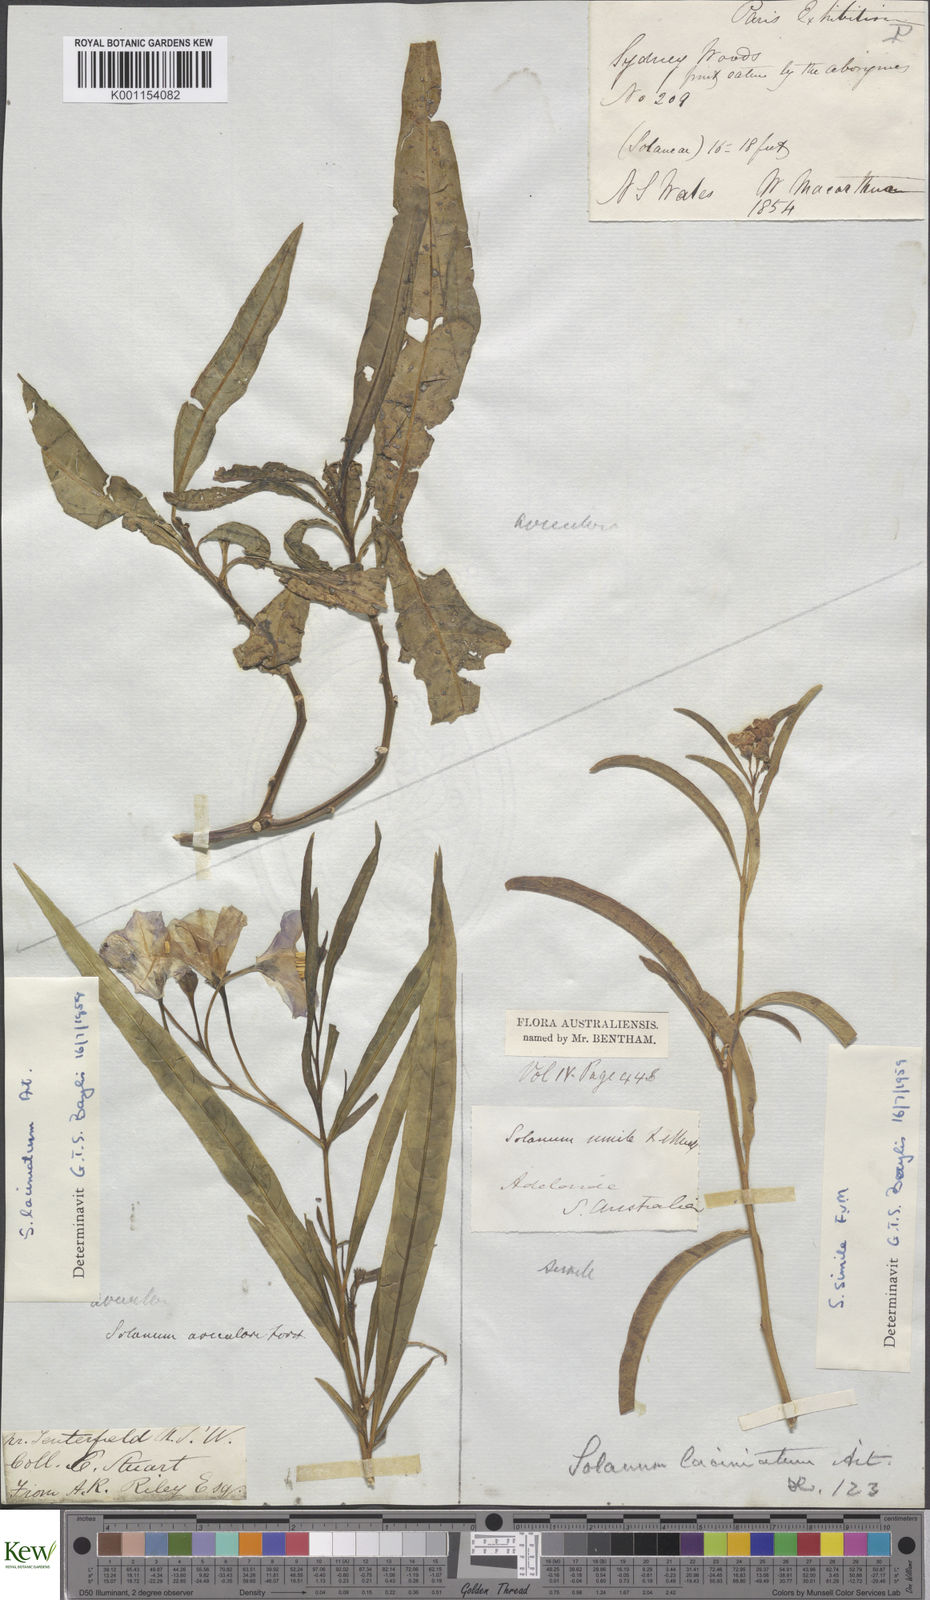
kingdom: Plantae
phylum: Tracheophyta
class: Magnoliopsida
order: Solanales
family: Solanaceae
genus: Solanum
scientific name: Solanum simile
